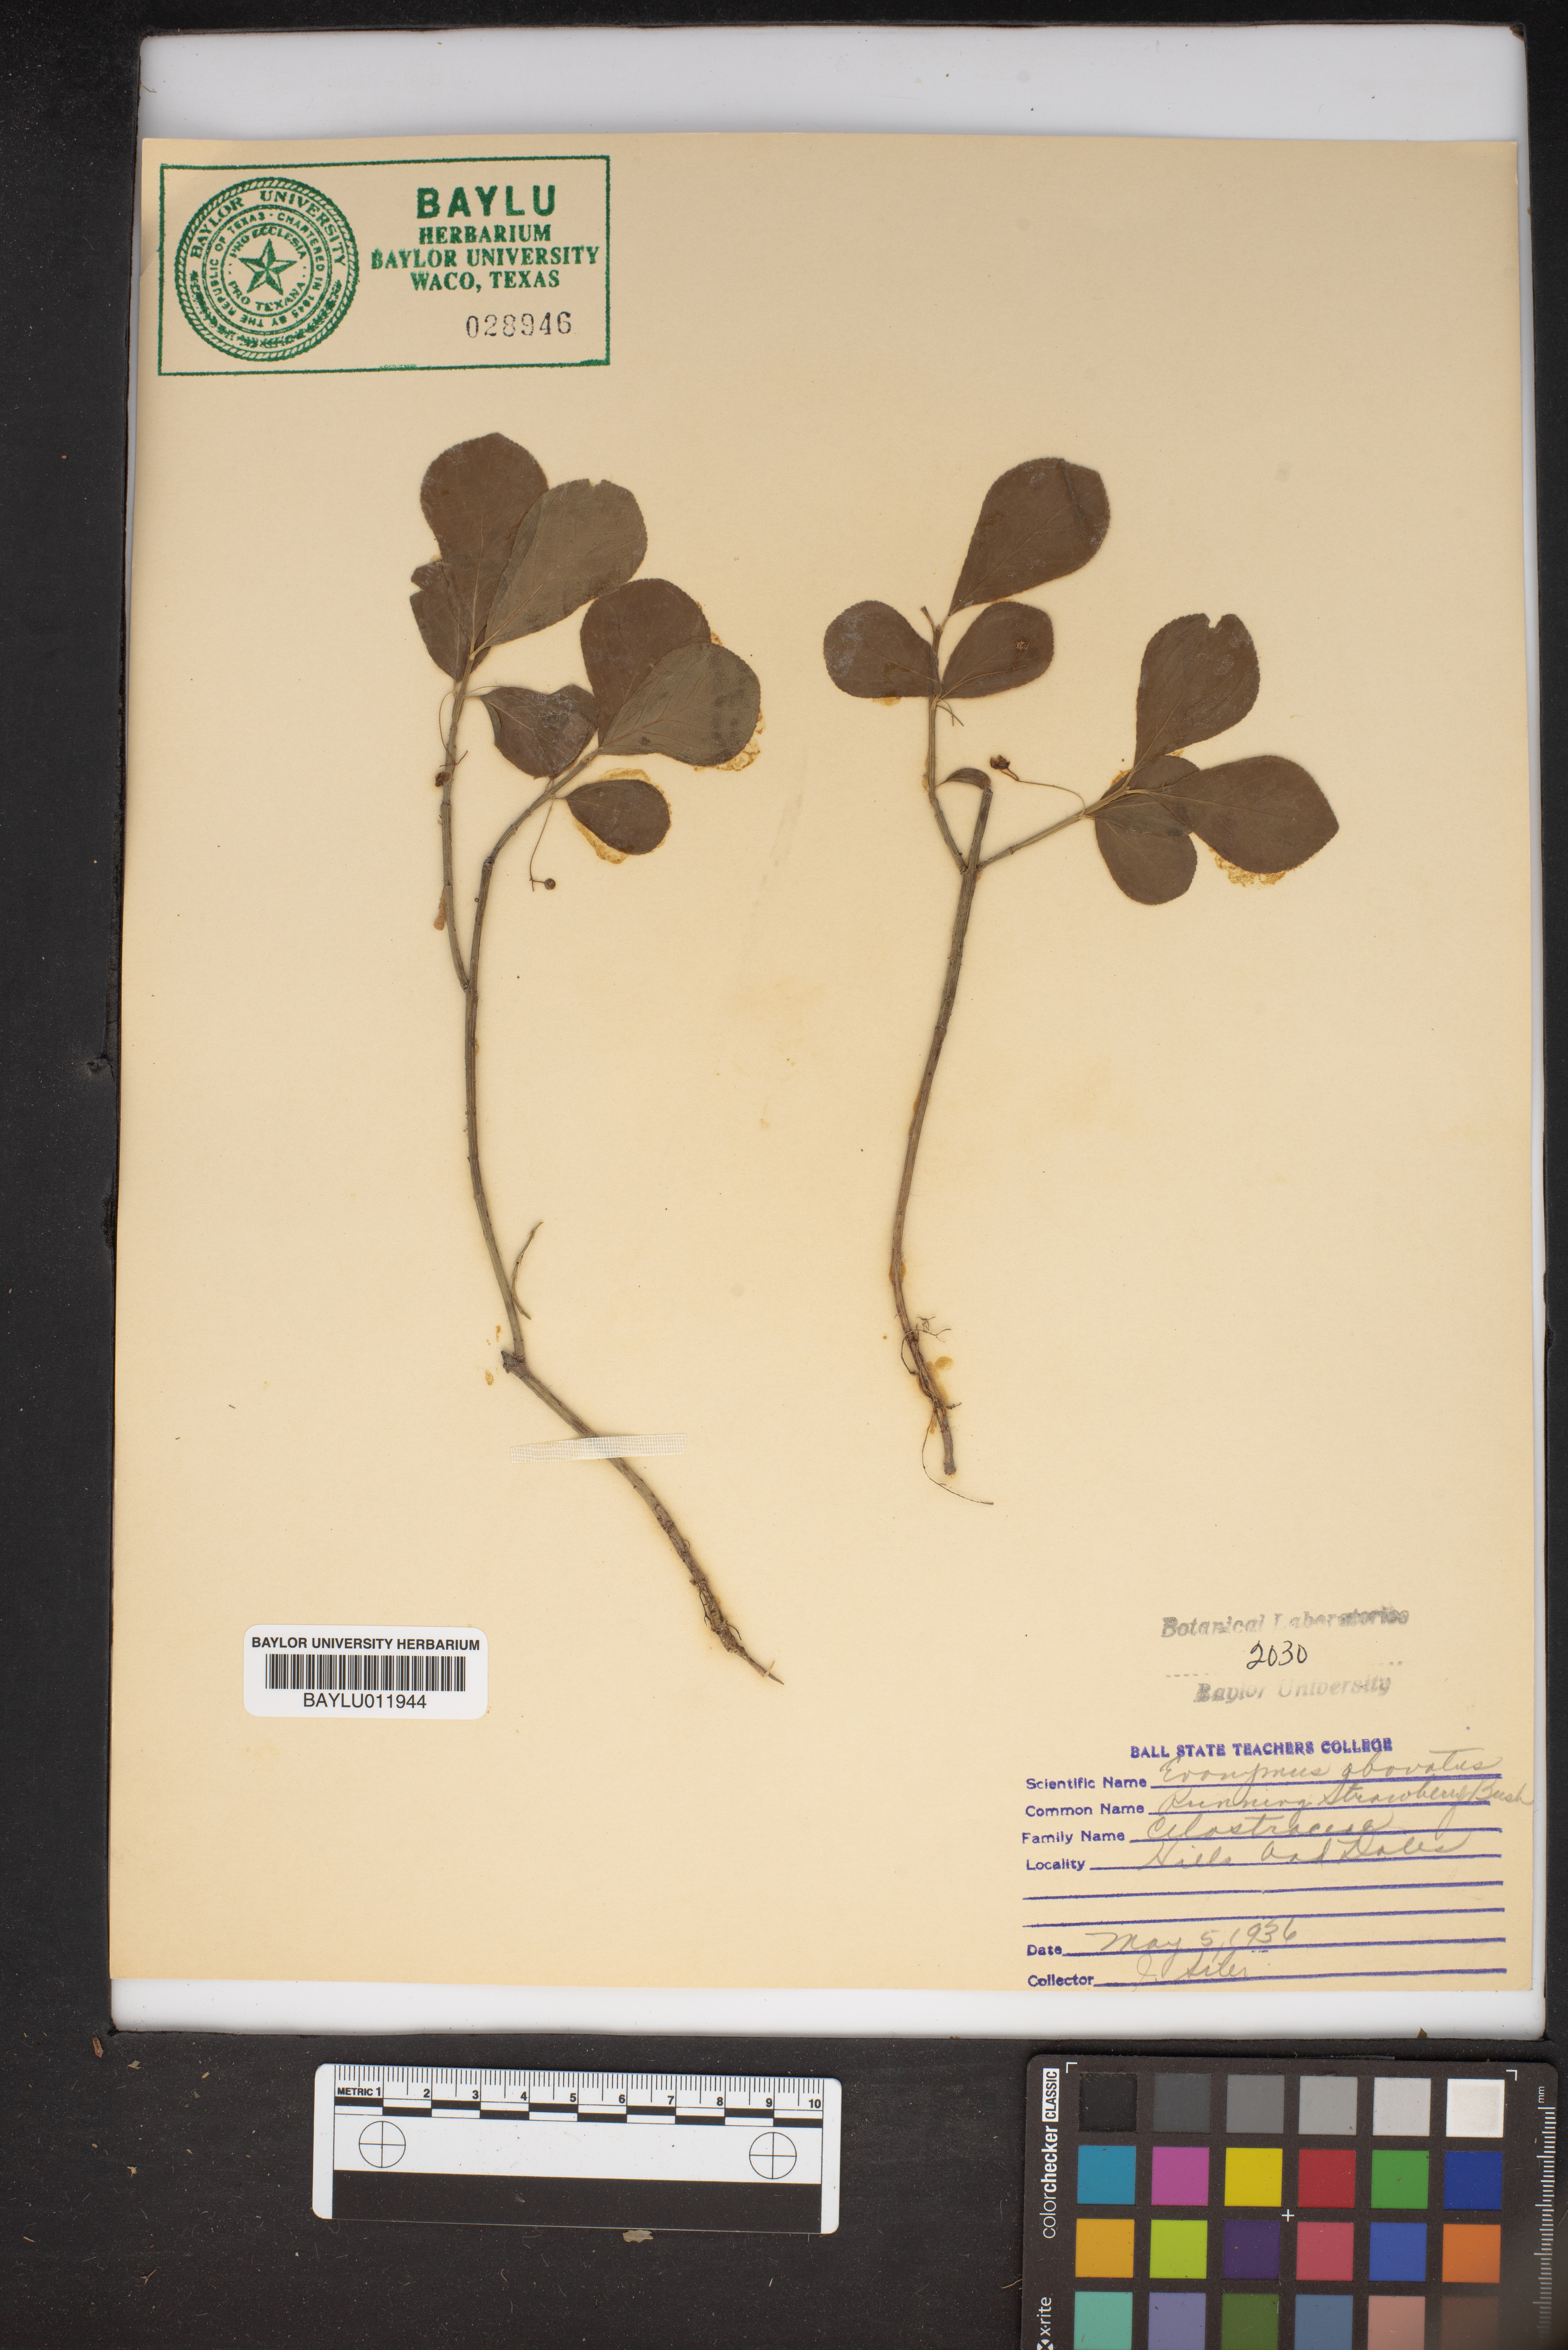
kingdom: Plantae
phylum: Tracheophyta
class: Magnoliopsida
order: Celastrales
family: Celastraceae
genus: Euonymus
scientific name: Euonymus obovatus
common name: Running strawberry-bush
